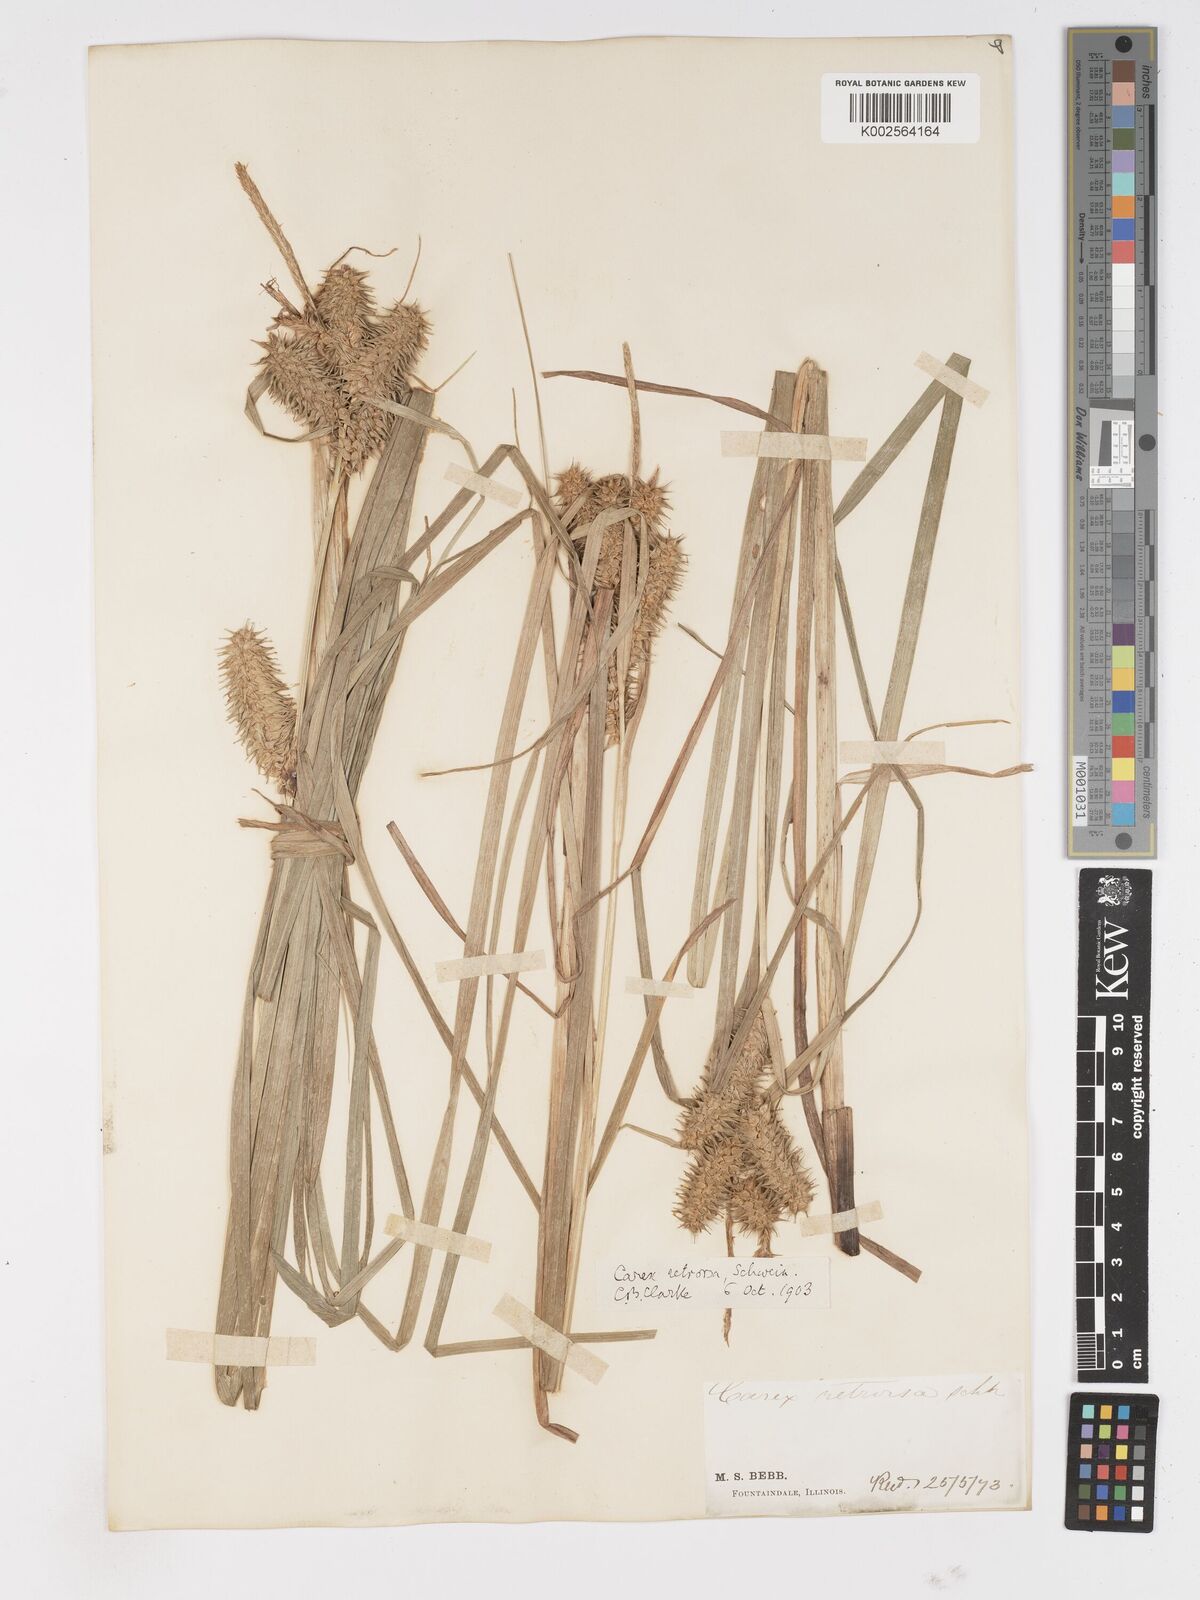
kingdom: Plantae
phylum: Tracheophyta
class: Liliopsida
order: Poales
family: Cyperaceae
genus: Carex
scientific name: Carex retrorsa
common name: Knot-sheath sedge
